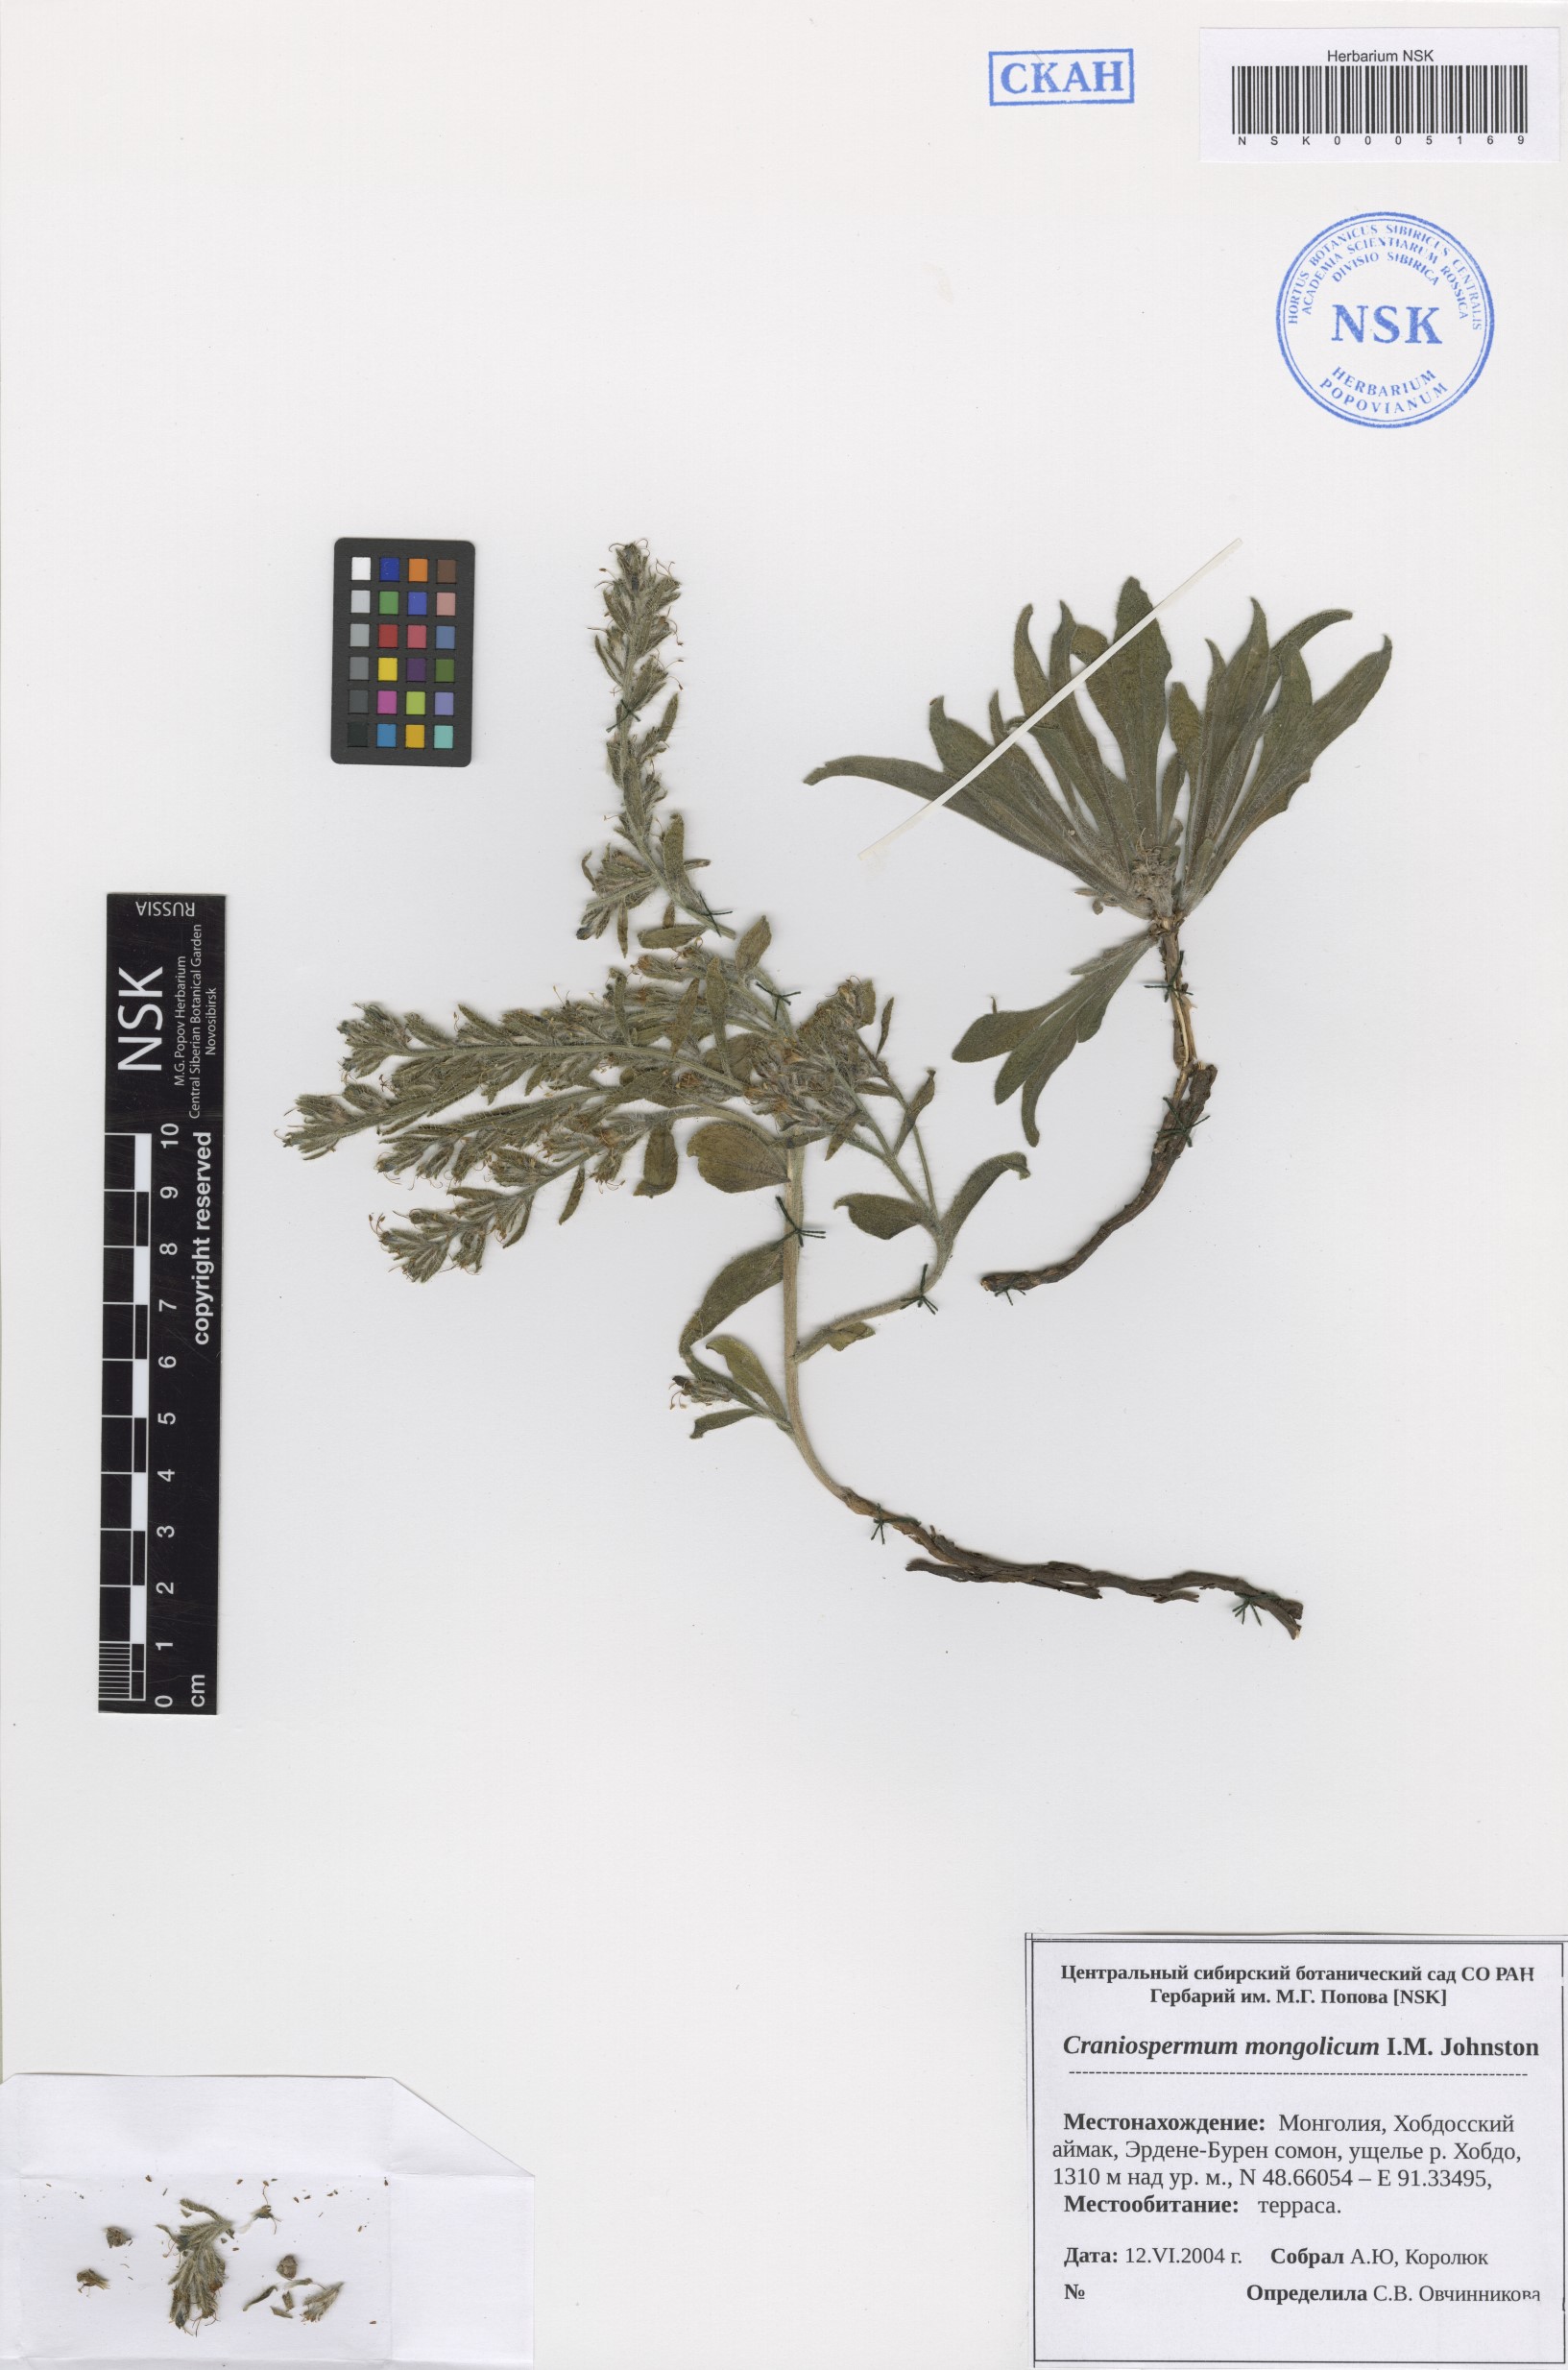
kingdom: Plantae
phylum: Tracheophyta
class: Magnoliopsida
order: Boraginales
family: Boraginaceae
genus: Craniospermum
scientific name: Craniospermum mongolicum
